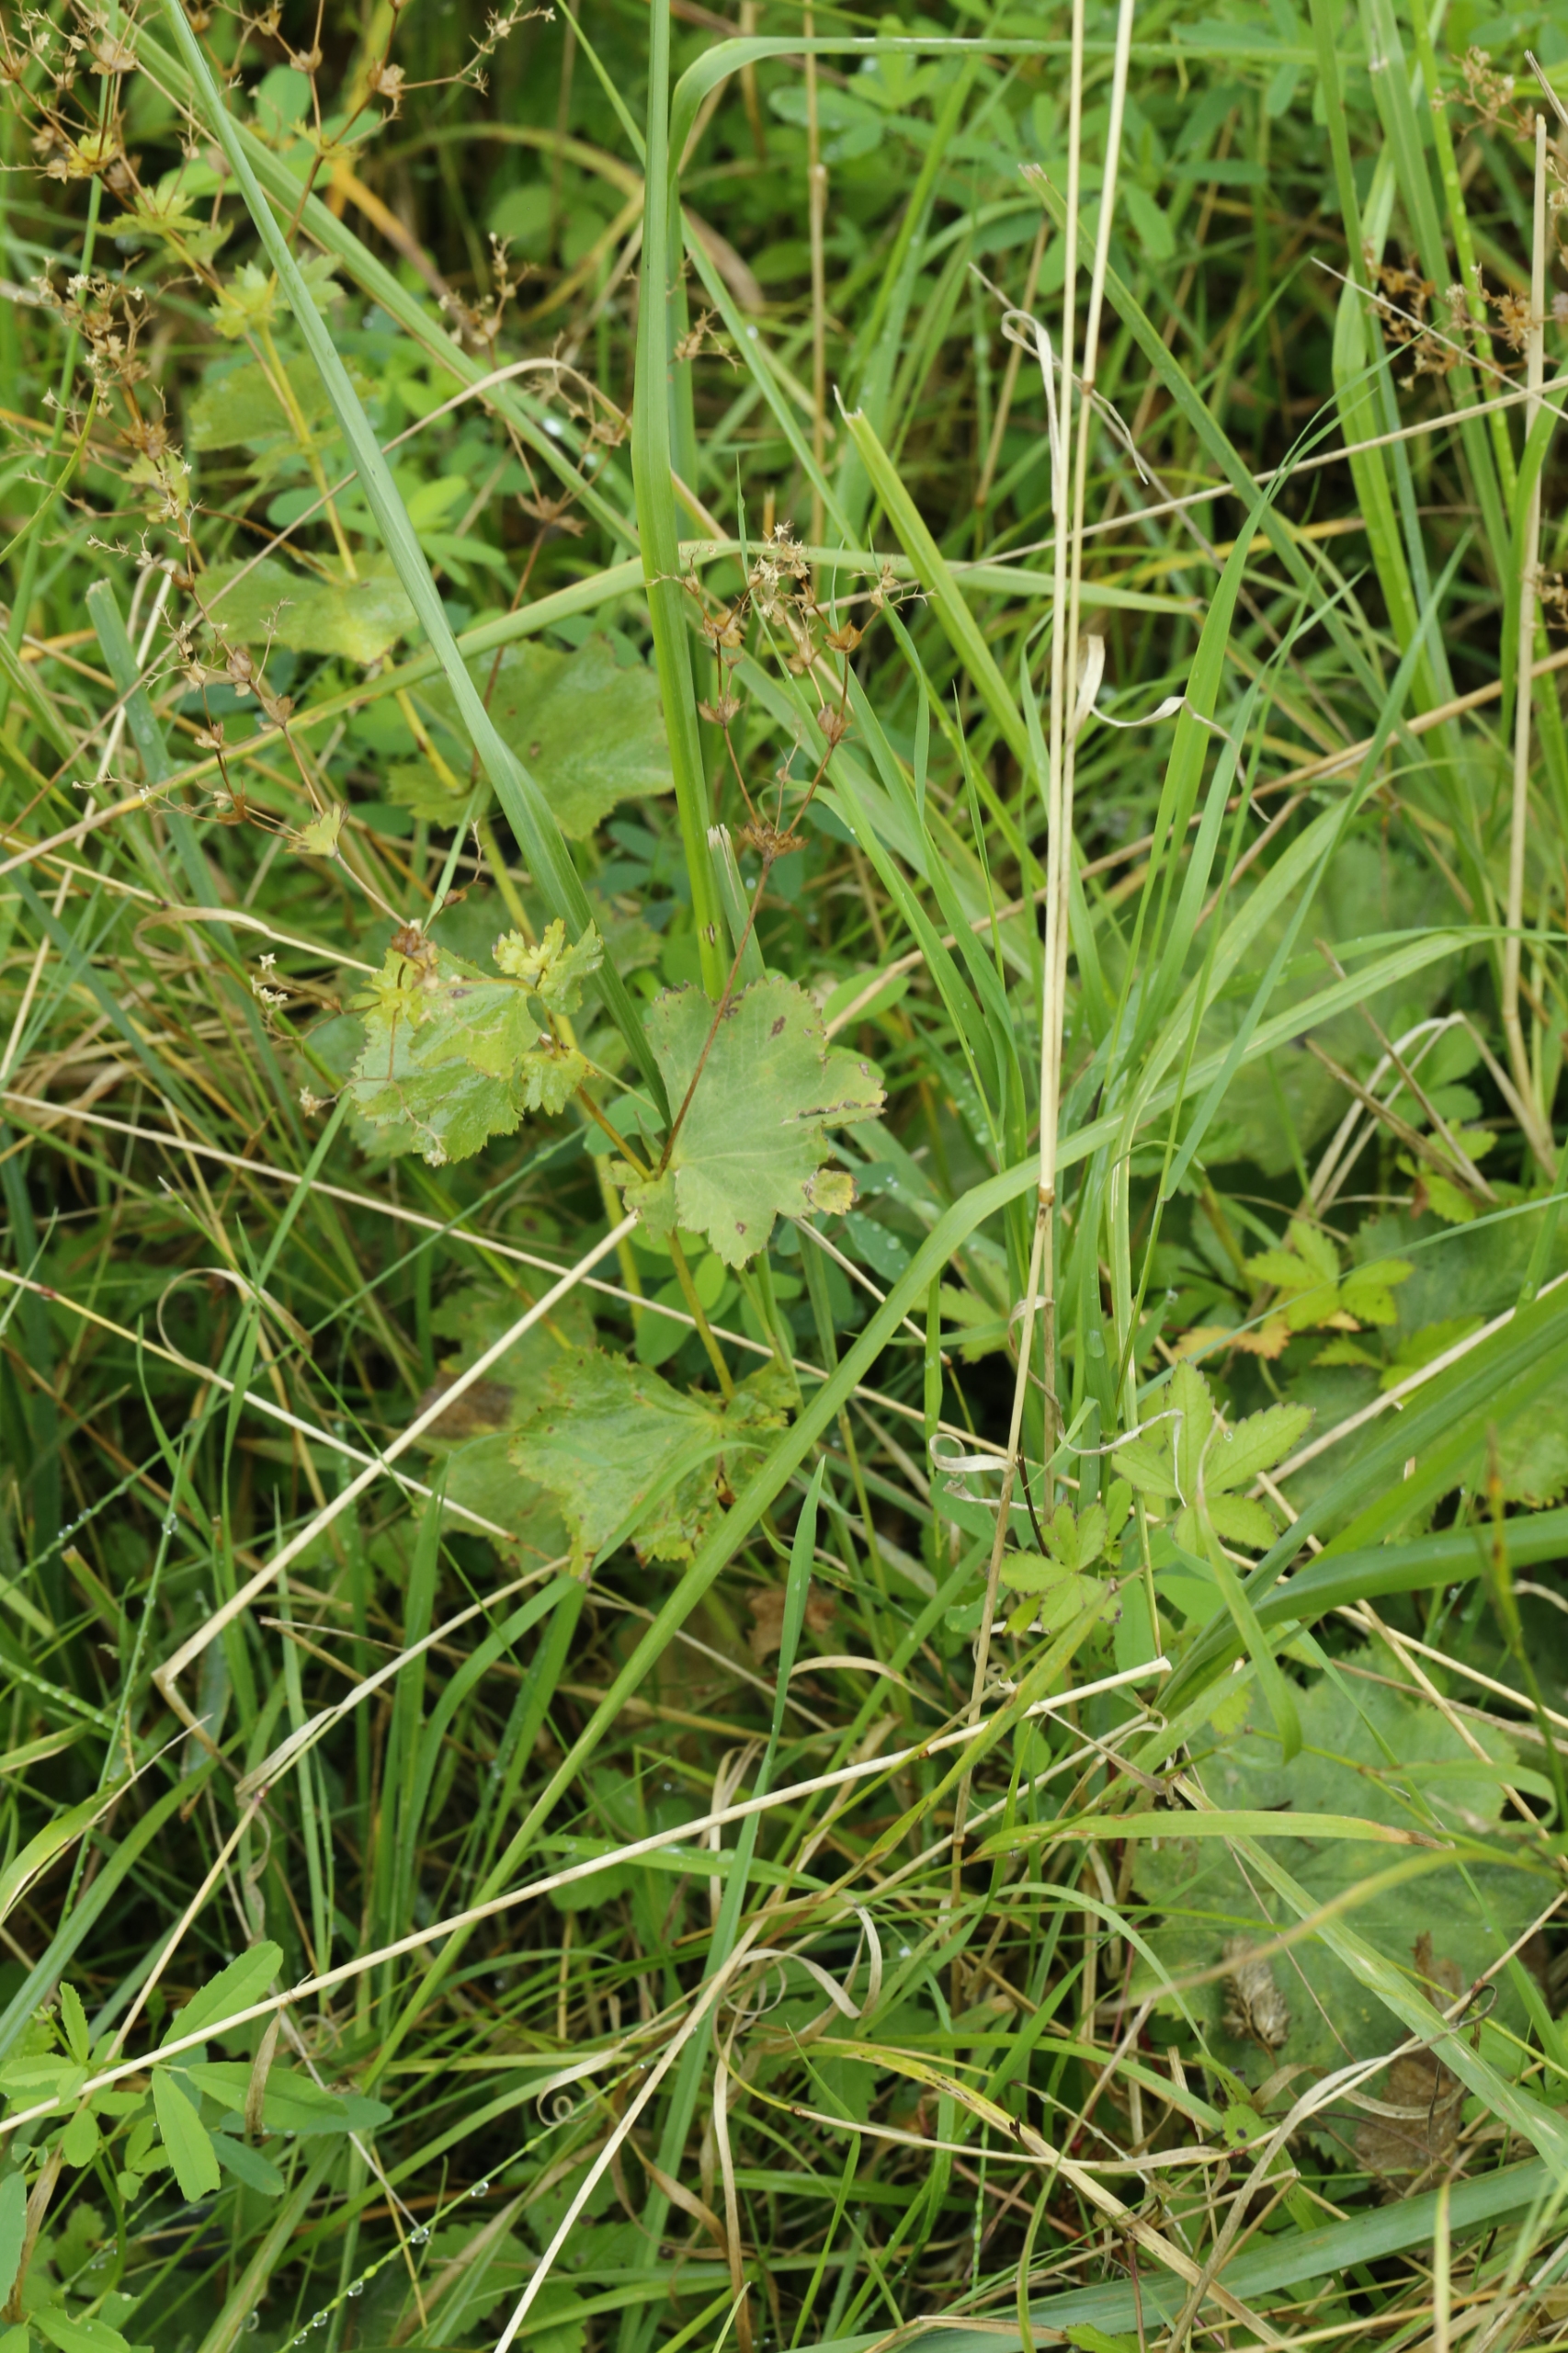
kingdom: Plantae
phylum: Tracheophyta
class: Magnoliopsida
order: Rosales
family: Rosaceae
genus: Alchemilla
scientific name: Alchemilla
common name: Løvefodslægten
